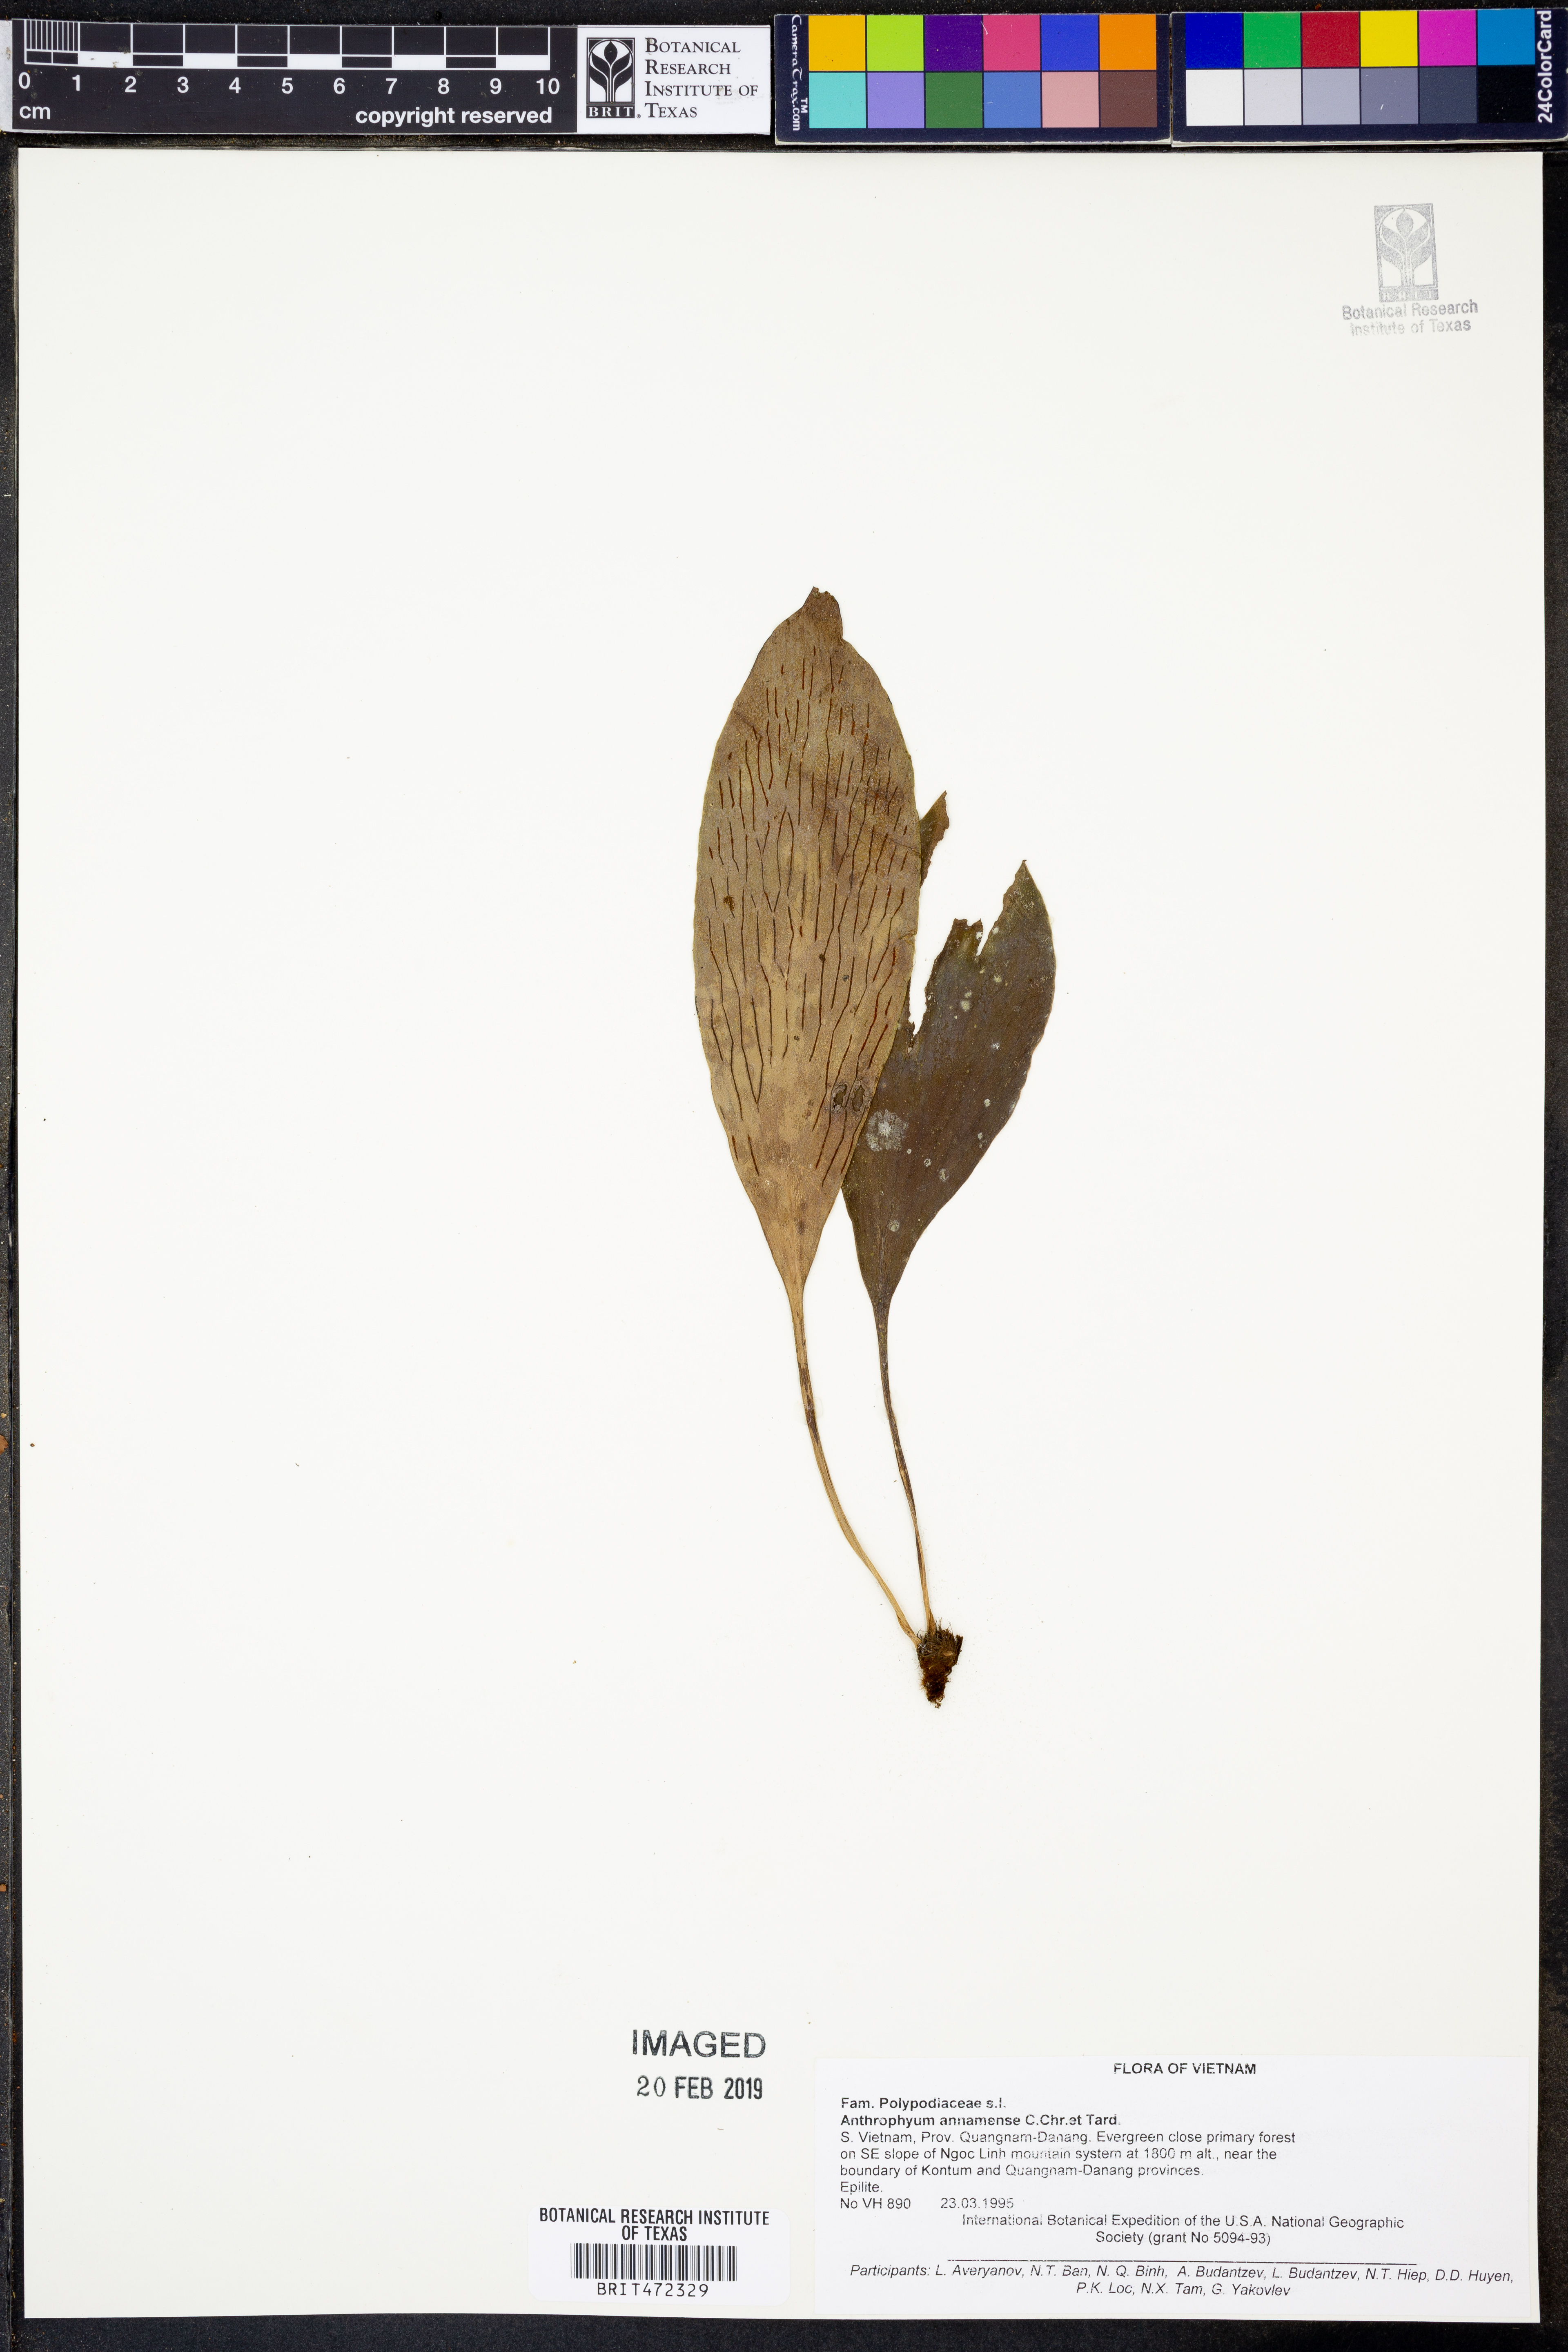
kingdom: Plantae
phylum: Tracheophyta
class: Polypodiopsida
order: Polypodiales
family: Pteridaceae
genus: Antrophyum
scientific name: Antrophyum annamense
